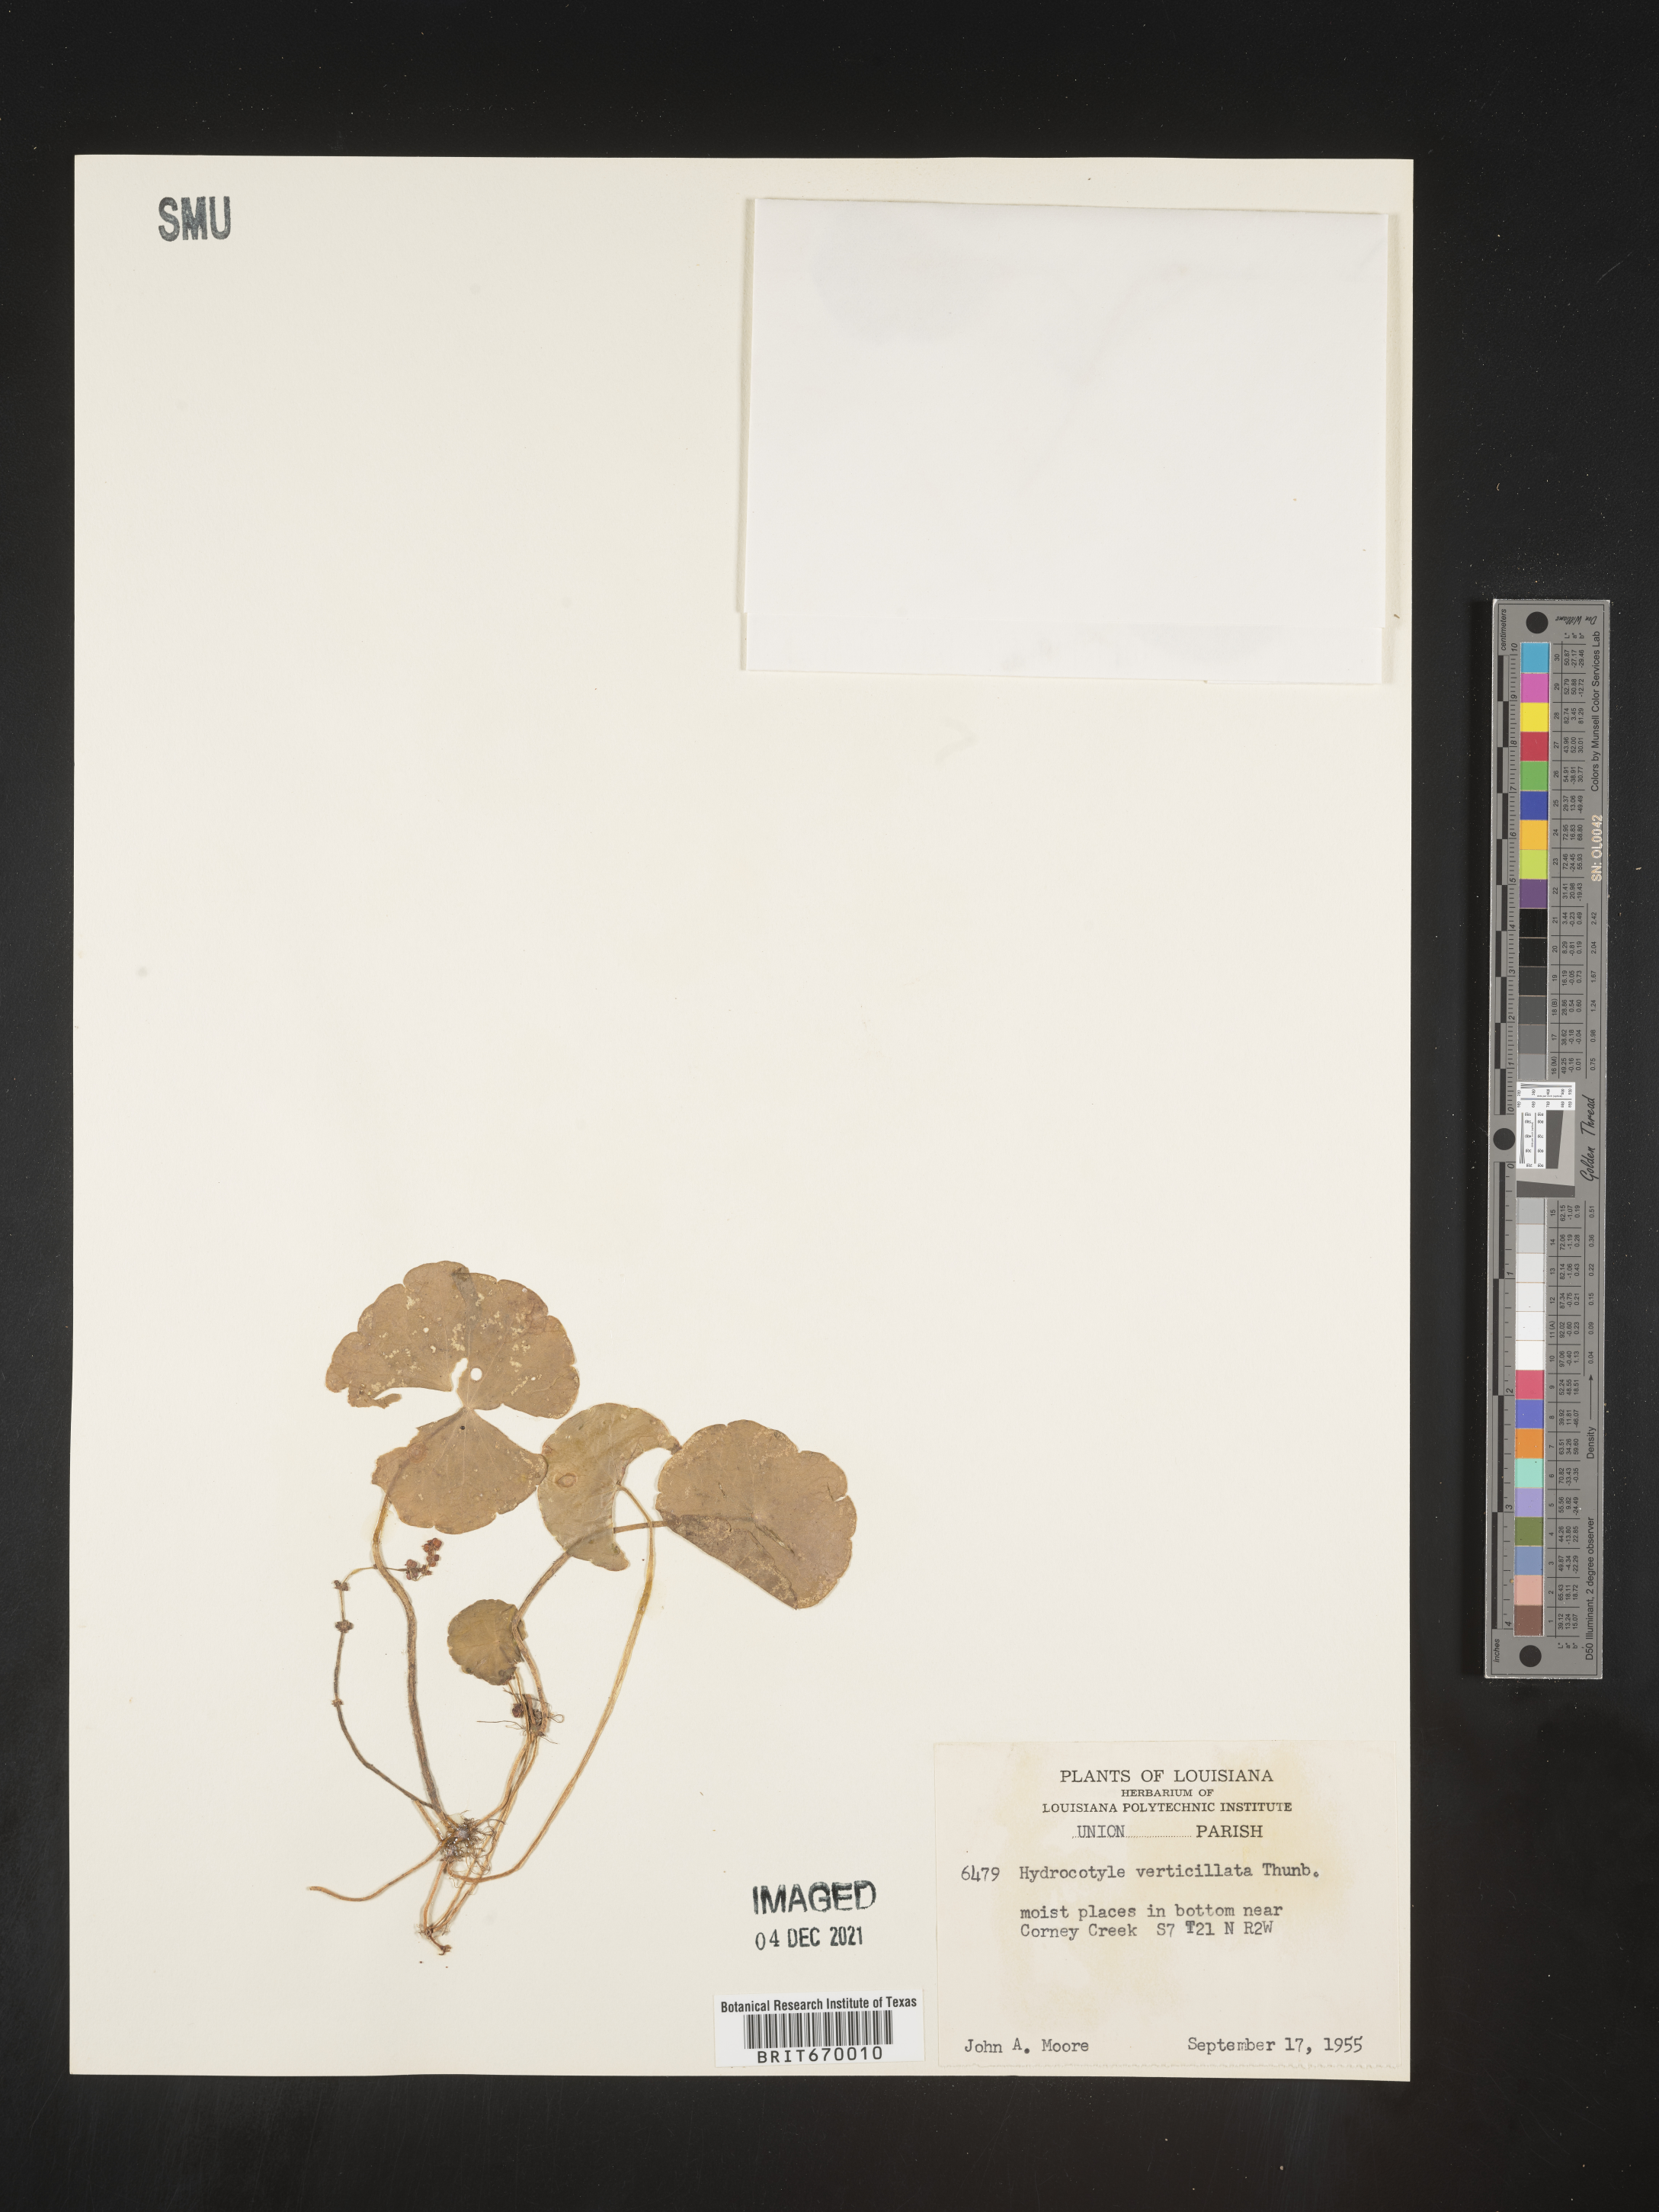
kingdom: Plantae
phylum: Tracheophyta
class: Magnoliopsida
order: Apiales
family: Araliaceae
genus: Hydrocotyle
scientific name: Hydrocotyle verticillata
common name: Whorled marshpennywort
